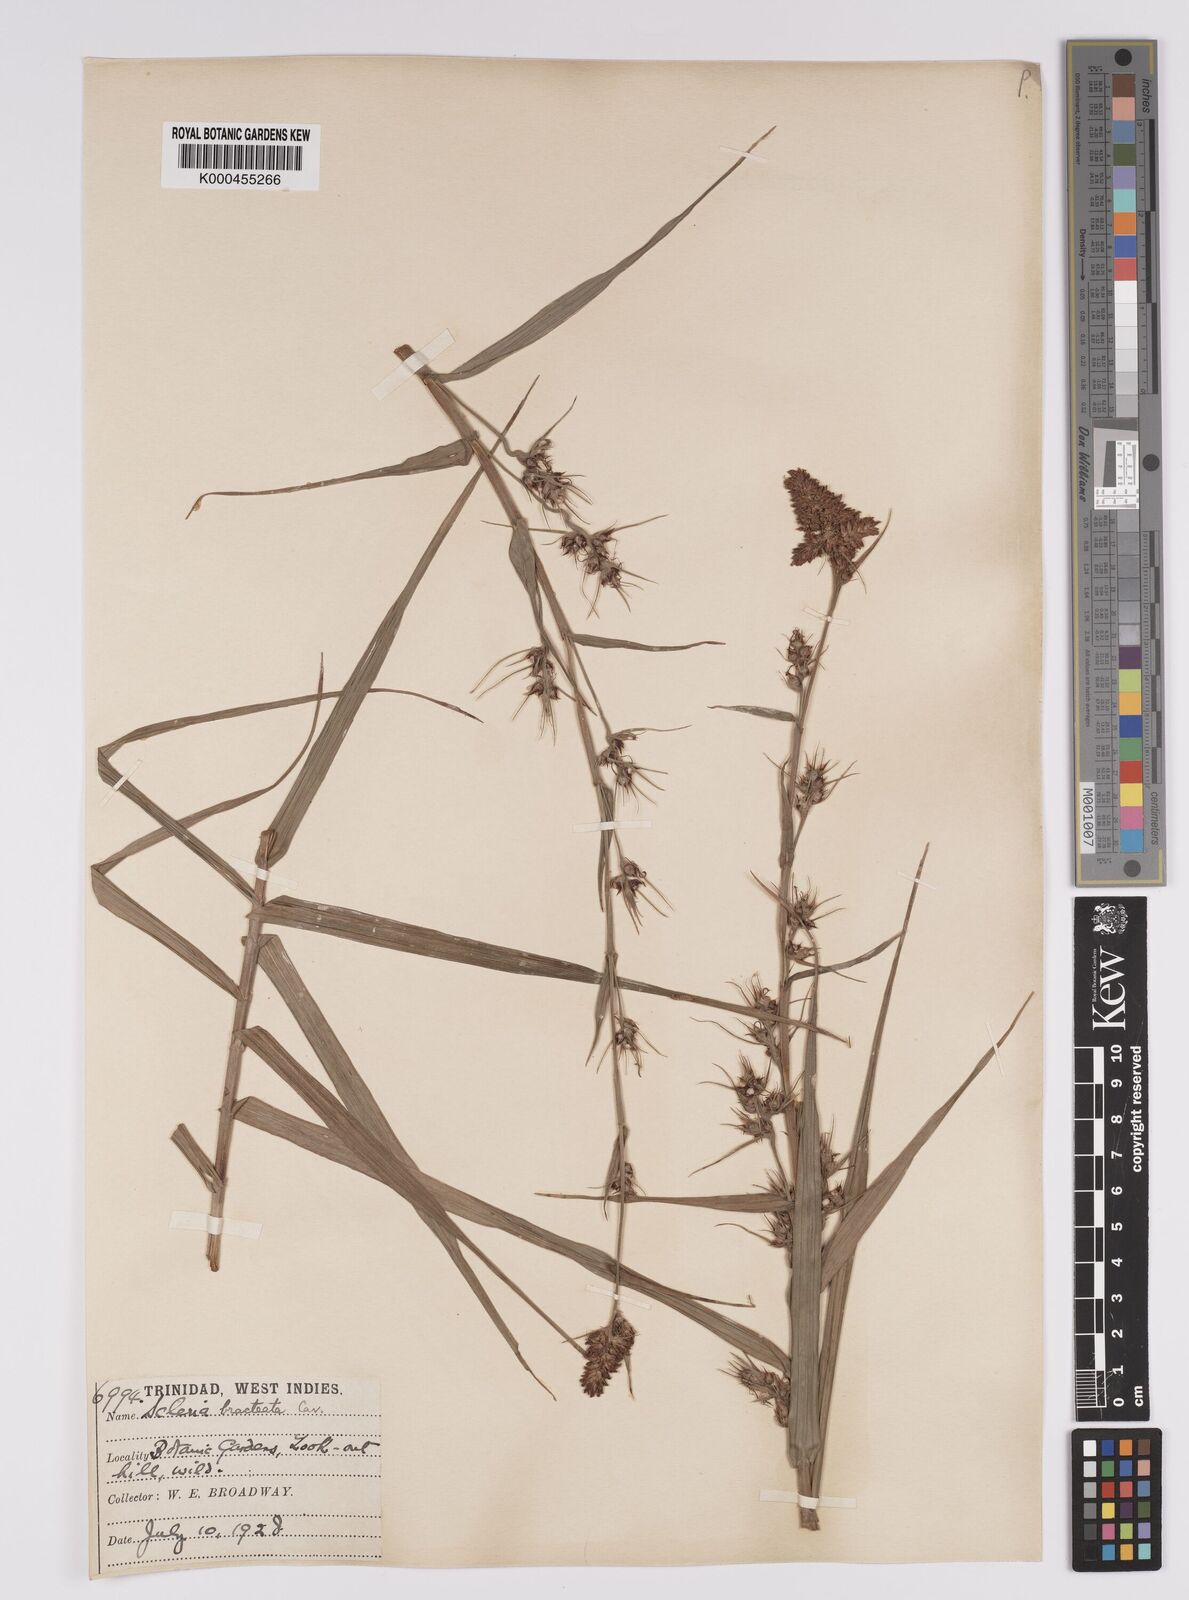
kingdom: Plantae
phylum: Tracheophyta
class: Liliopsida
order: Poales
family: Cyperaceae
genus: Scleria
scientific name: Scleria bracteata
